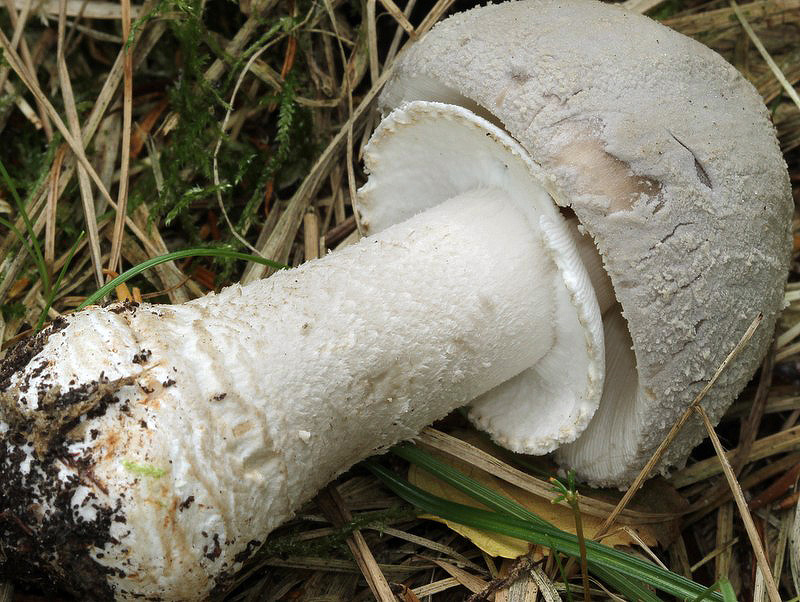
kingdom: Fungi
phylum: Basidiomycota
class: Agaricomycetes
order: Agaricales
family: Amanitaceae
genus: Amanita
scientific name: Amanita
